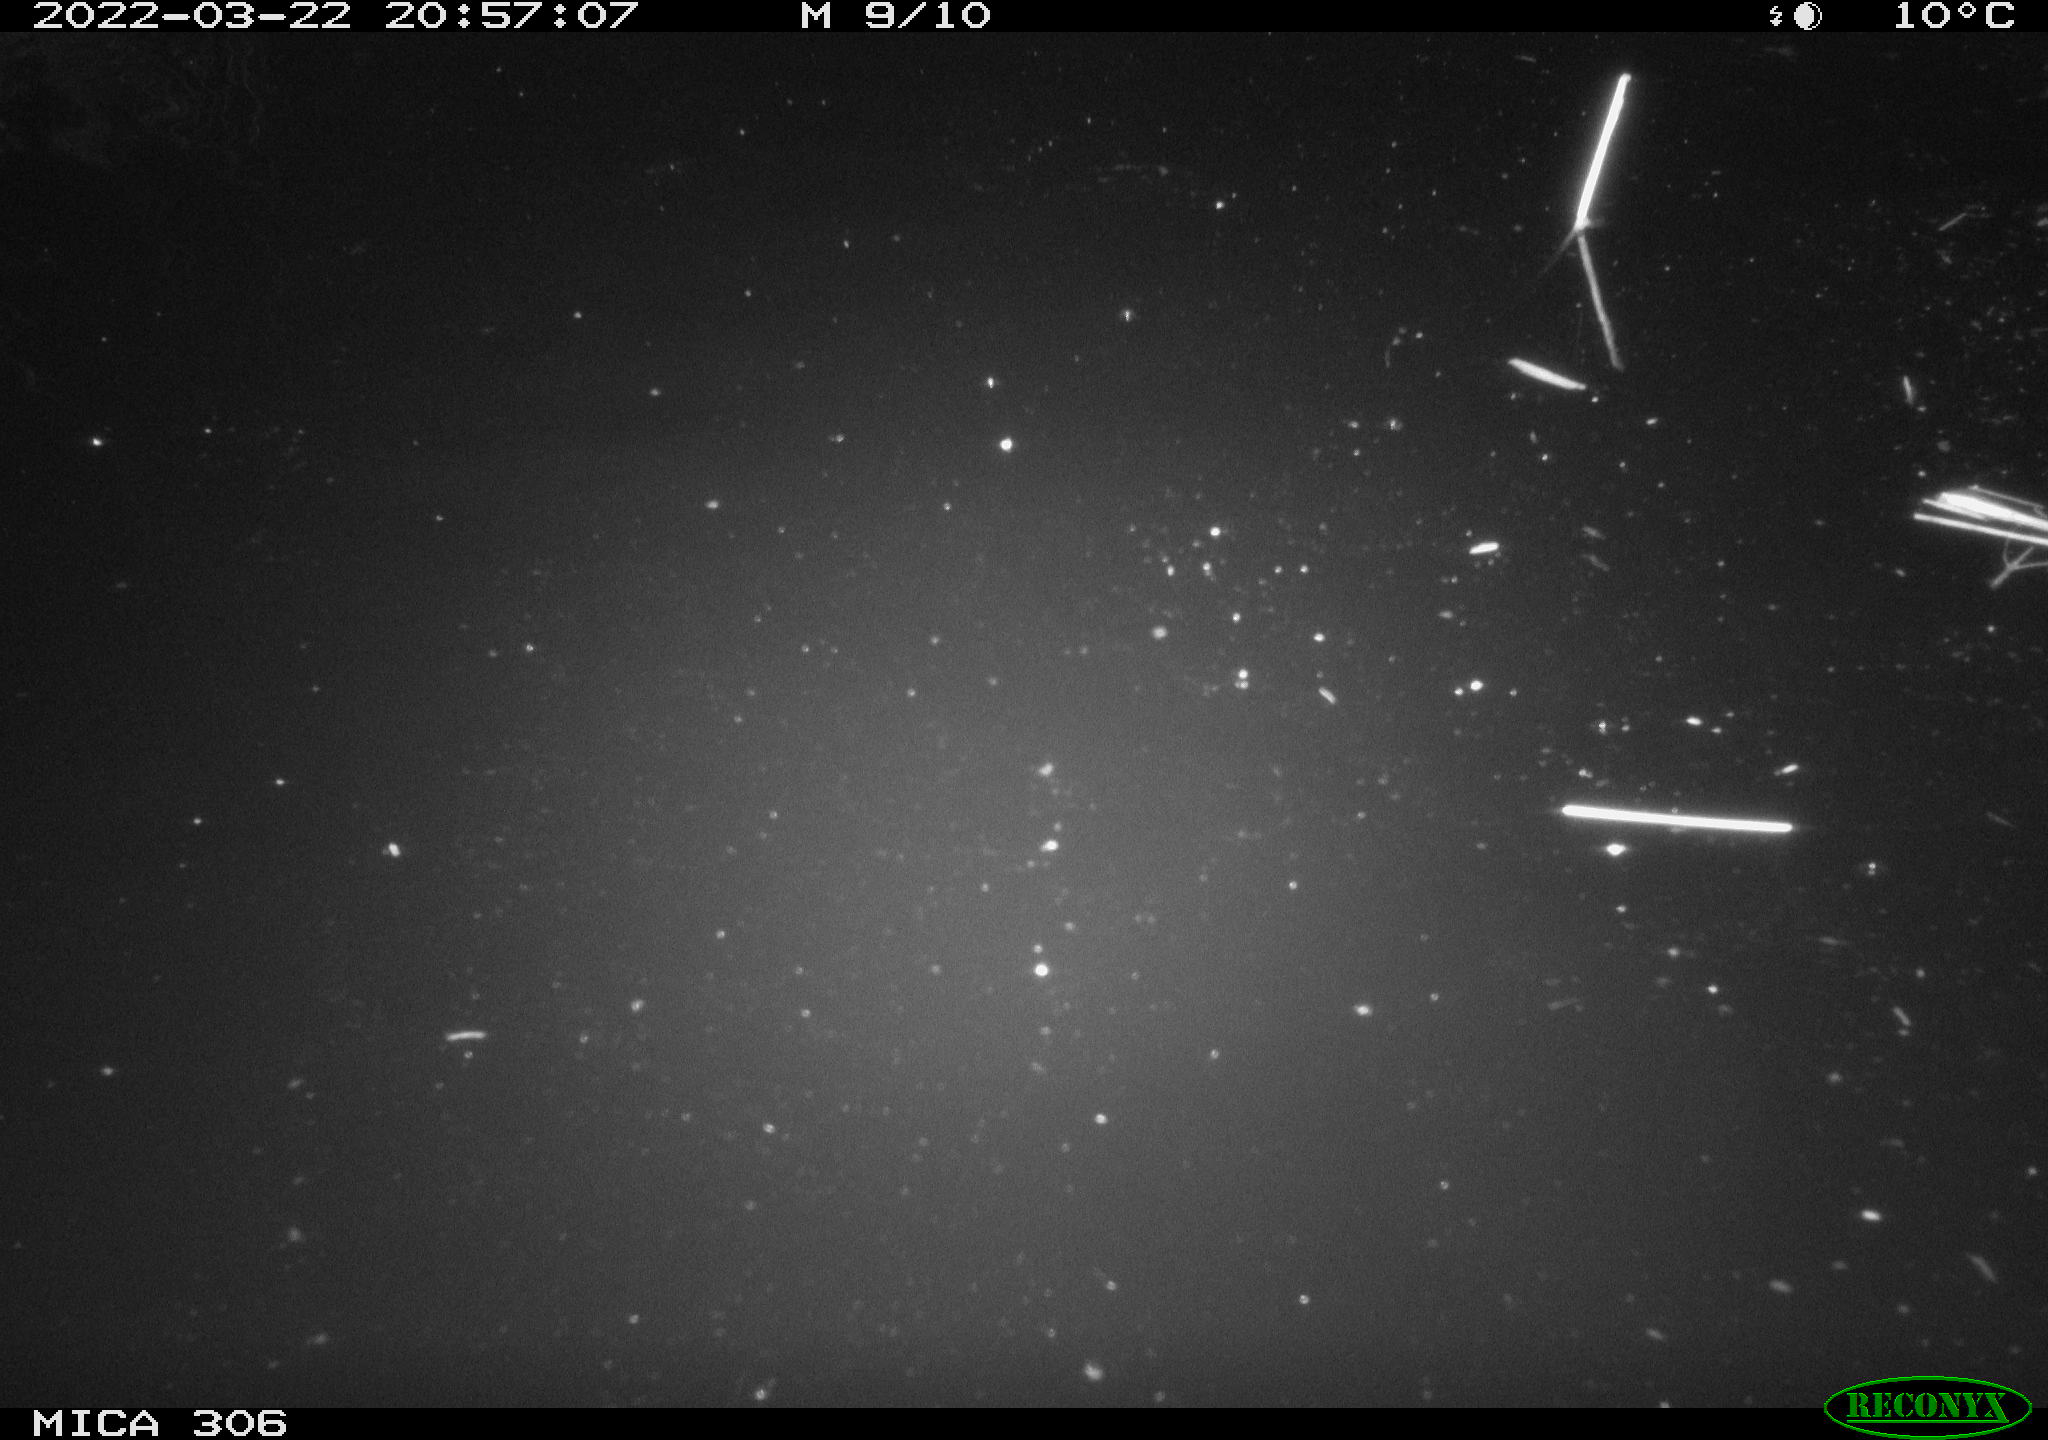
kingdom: Animalia
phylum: Chordata
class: Mammalia
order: Rodentia
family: Cricetidae
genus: Ondatra
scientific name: Ondatra zibethicus
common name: Muskrat
